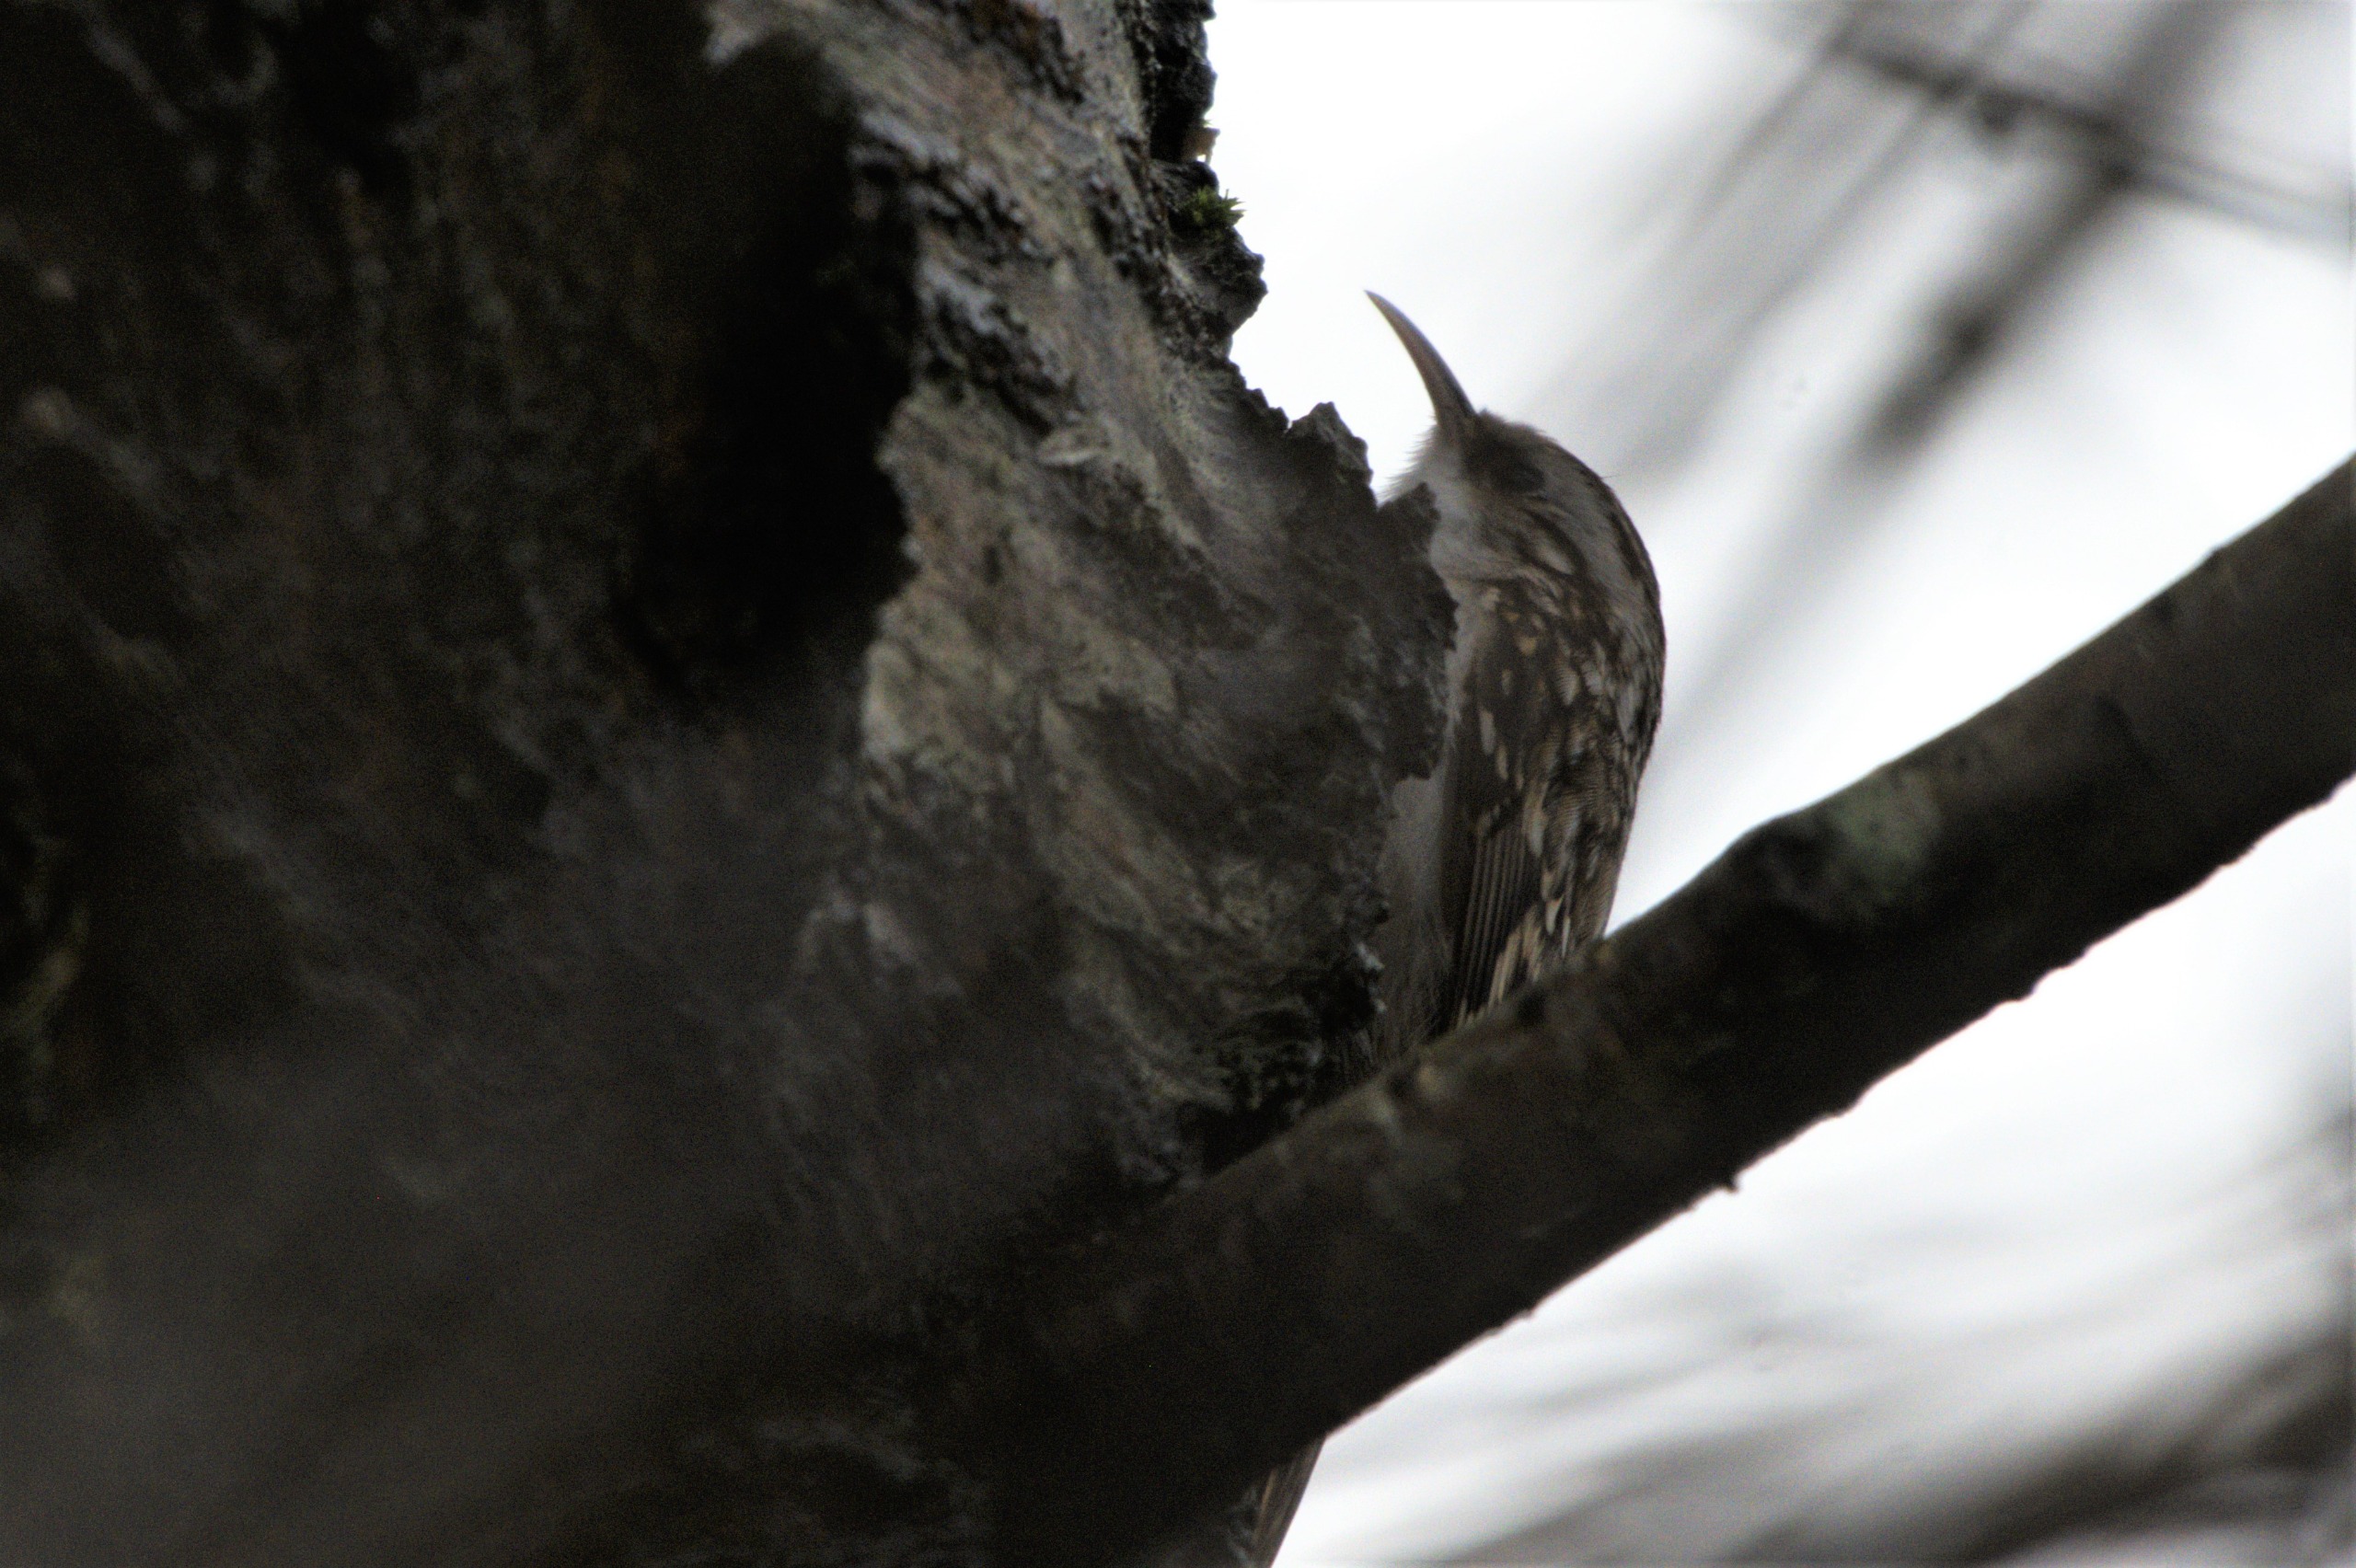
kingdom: Animalia
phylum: Chordata
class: Aves
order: Passeriformes
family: Certhiidae
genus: Certhia
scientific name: Certhia familiaris
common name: Træløber
